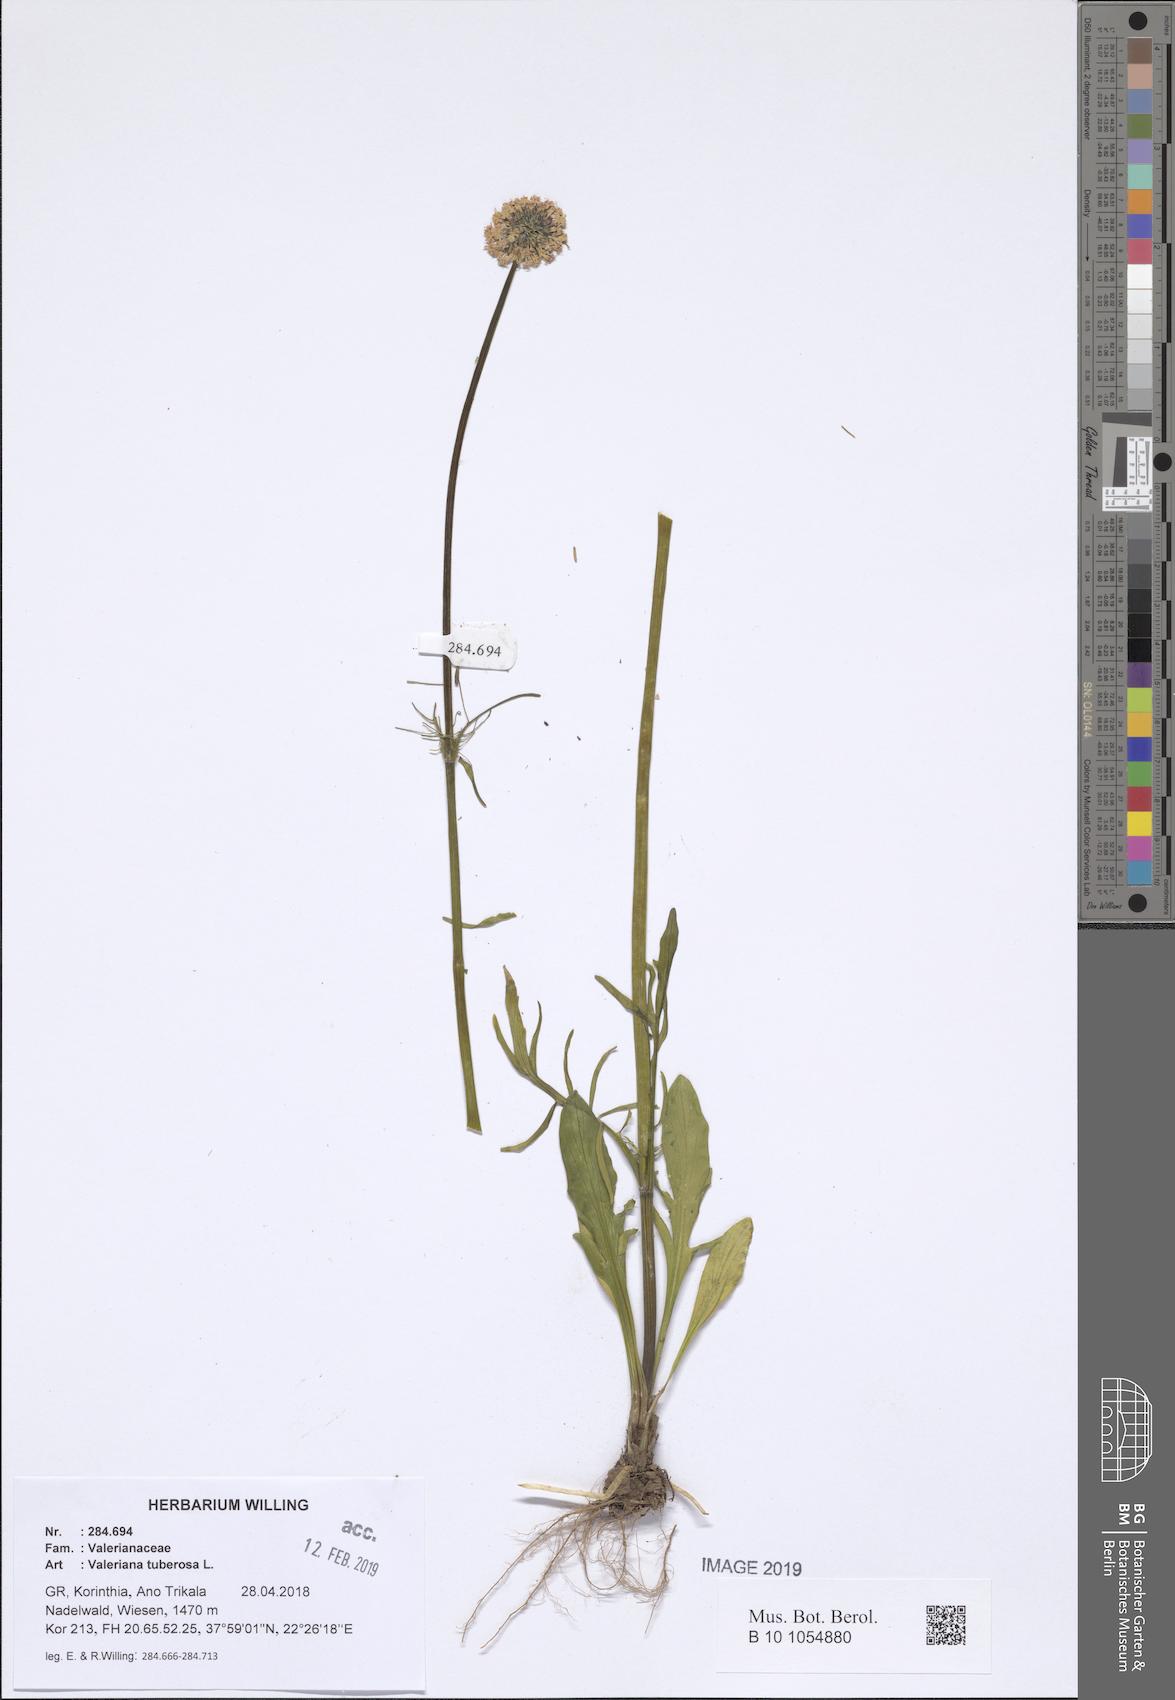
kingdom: Plantae
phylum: Tracheophyta
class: Magnoliopsida
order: Dipsacales
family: Caprifoliaceae
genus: Valeriana
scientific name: Valeriana tuberosa
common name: Tuberous valerian
